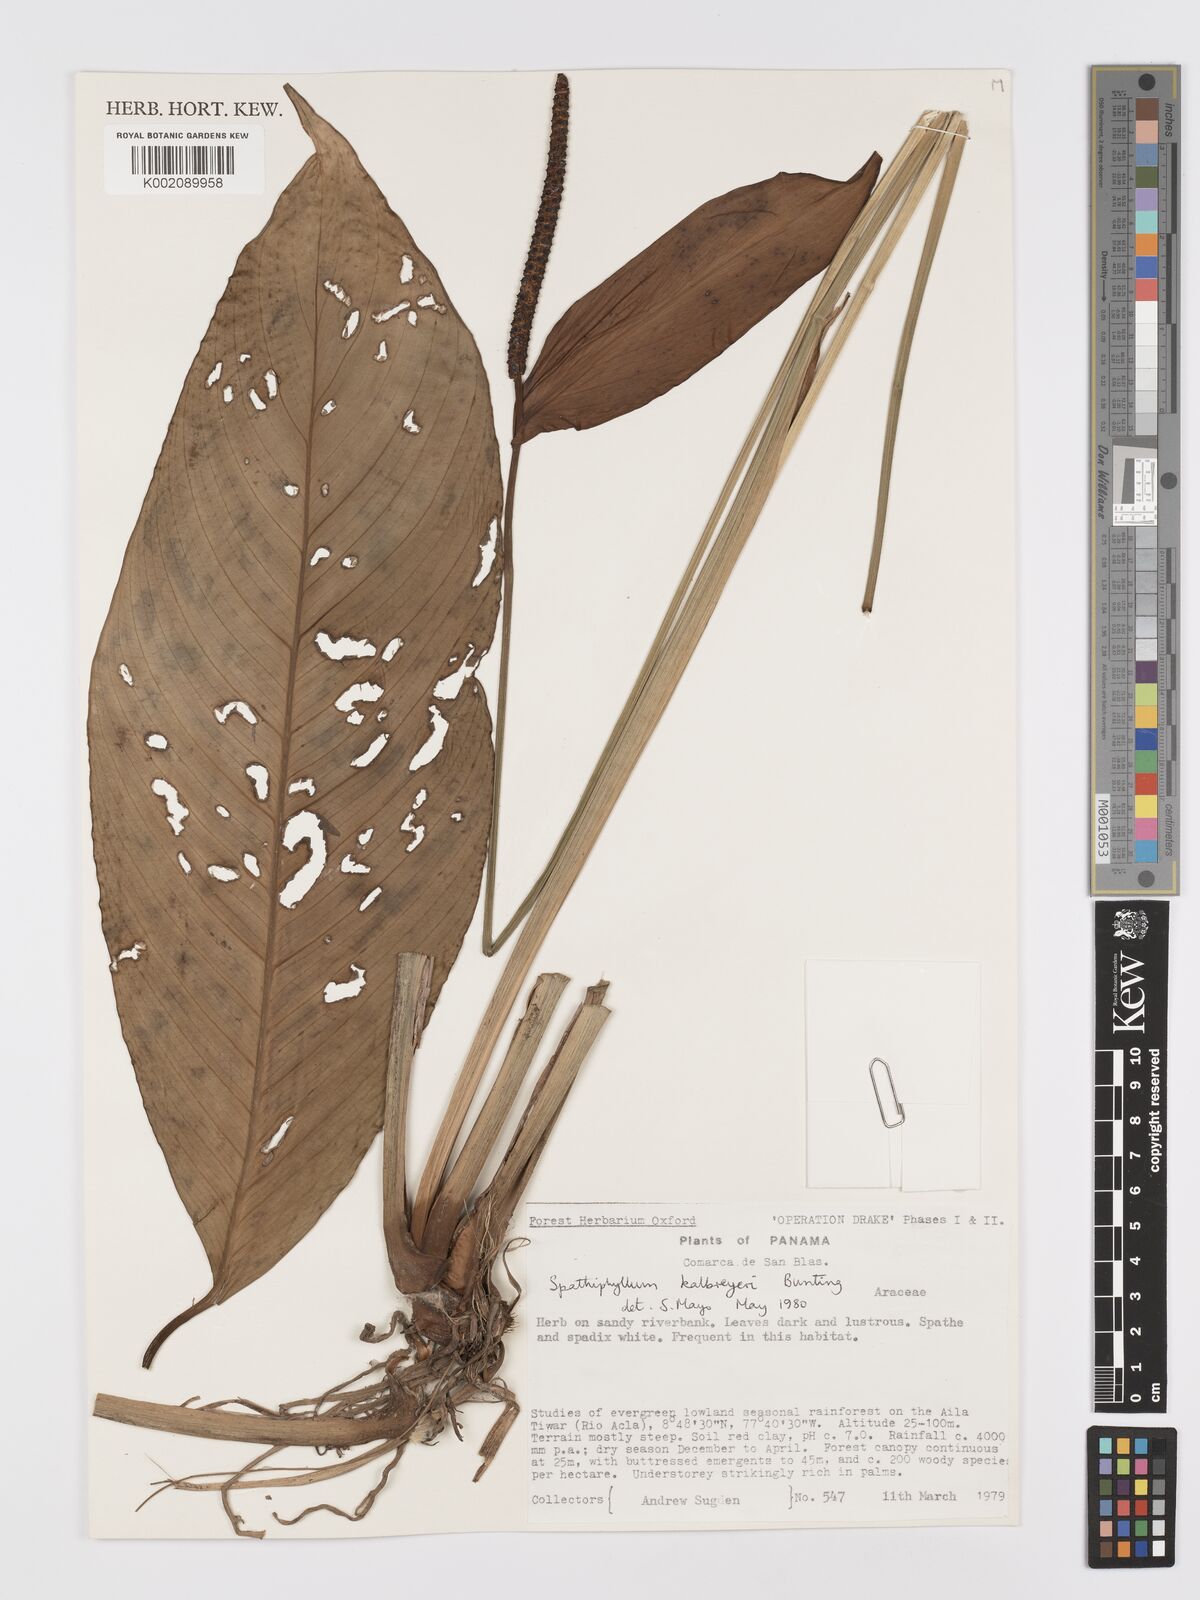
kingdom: Plantae
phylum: Tracheophyta
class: Liliopsida
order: Alismatales
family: Araceae
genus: Spathiphyllum
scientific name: Spathiphyllum kalbreyeri
